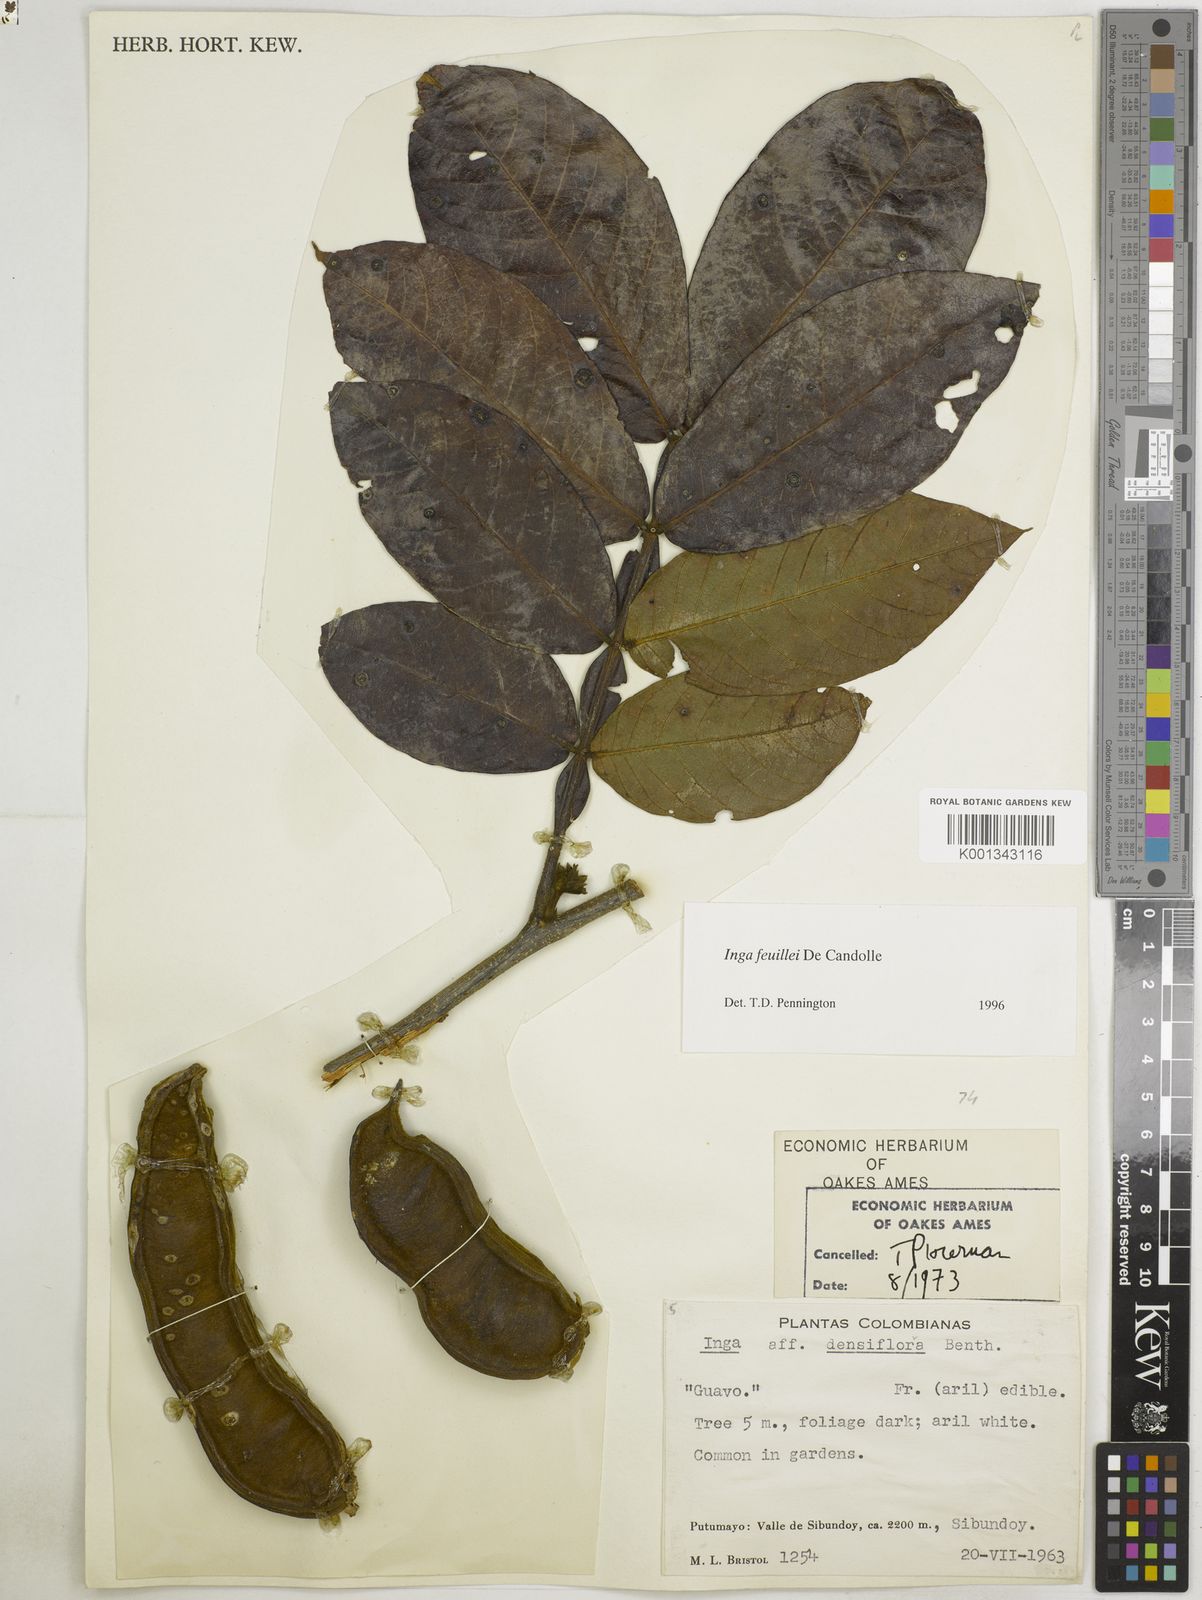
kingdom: Plantae
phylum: Tracheophyta
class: Magnoliopsida
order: Fabales
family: Fabaceae
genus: Inga
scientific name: Inga feuillei
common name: Ice cream bean
